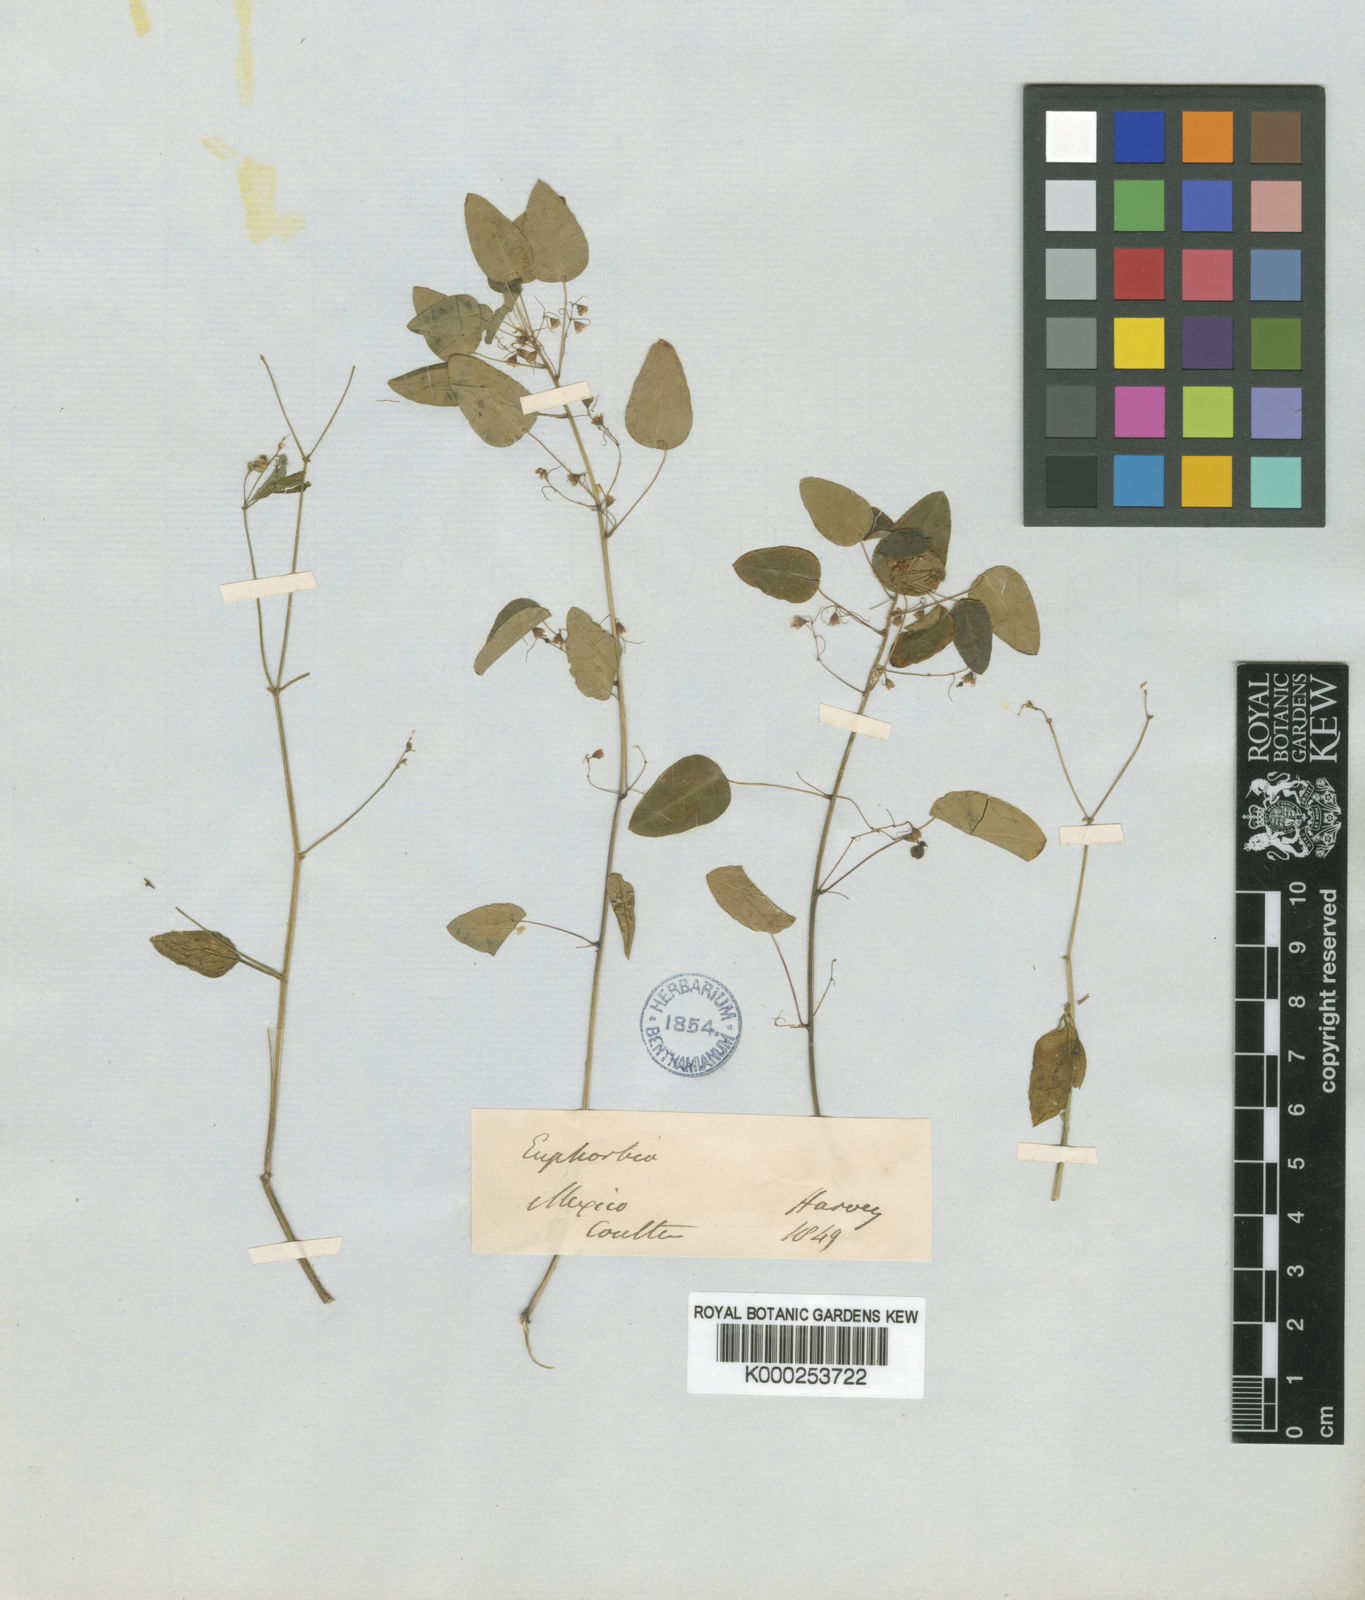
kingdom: Plantae
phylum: Tracheophyta
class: Magnoliopsida
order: Malpighiales
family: Euphorbiaceae
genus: Euphorbia
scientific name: Euphorbia dioscoreoides
